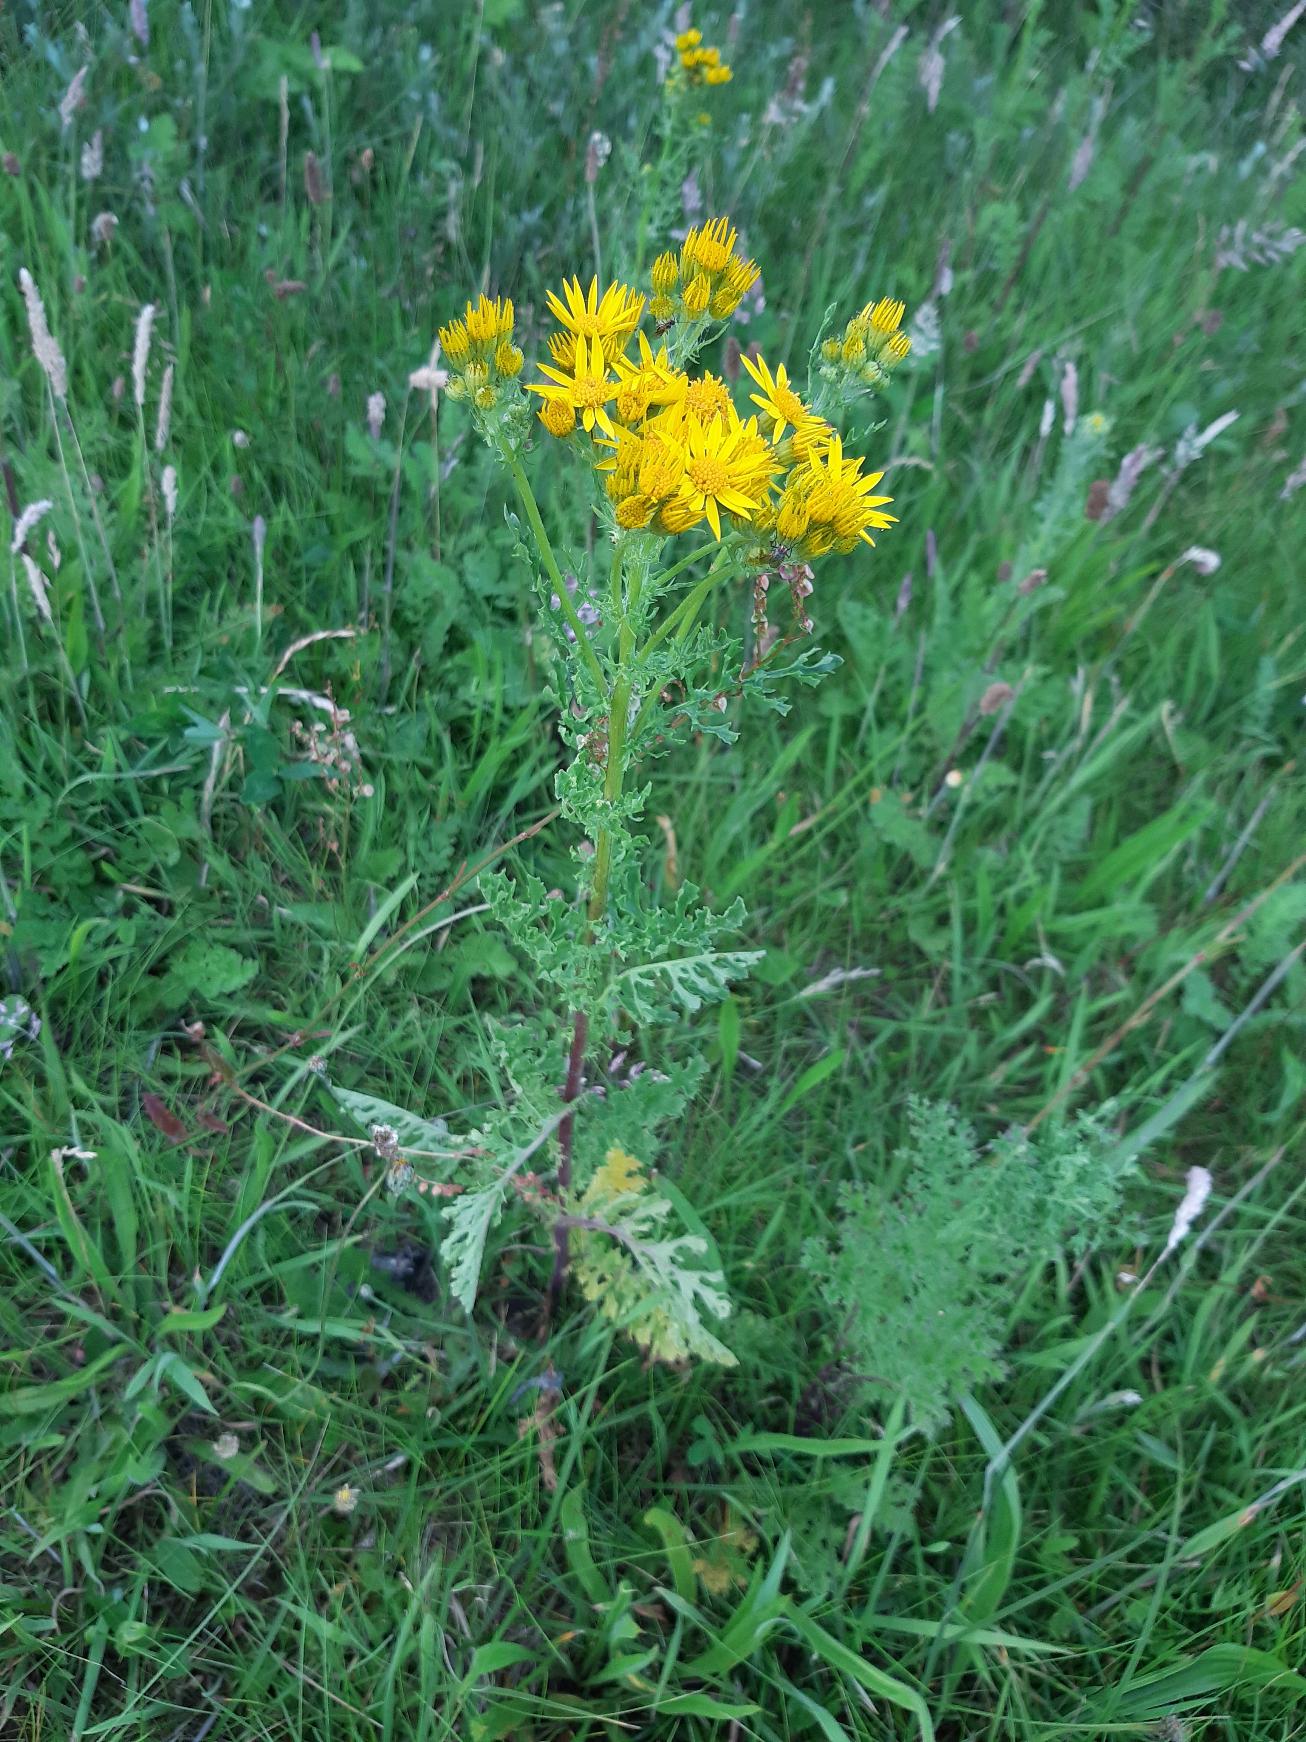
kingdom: Plantae
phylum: Tracheophyta
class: Magnoliopsida
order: Asterales
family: Asteraceae
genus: Jacobaea
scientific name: Jacobaea vulgaris
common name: Eng-brandbæger
